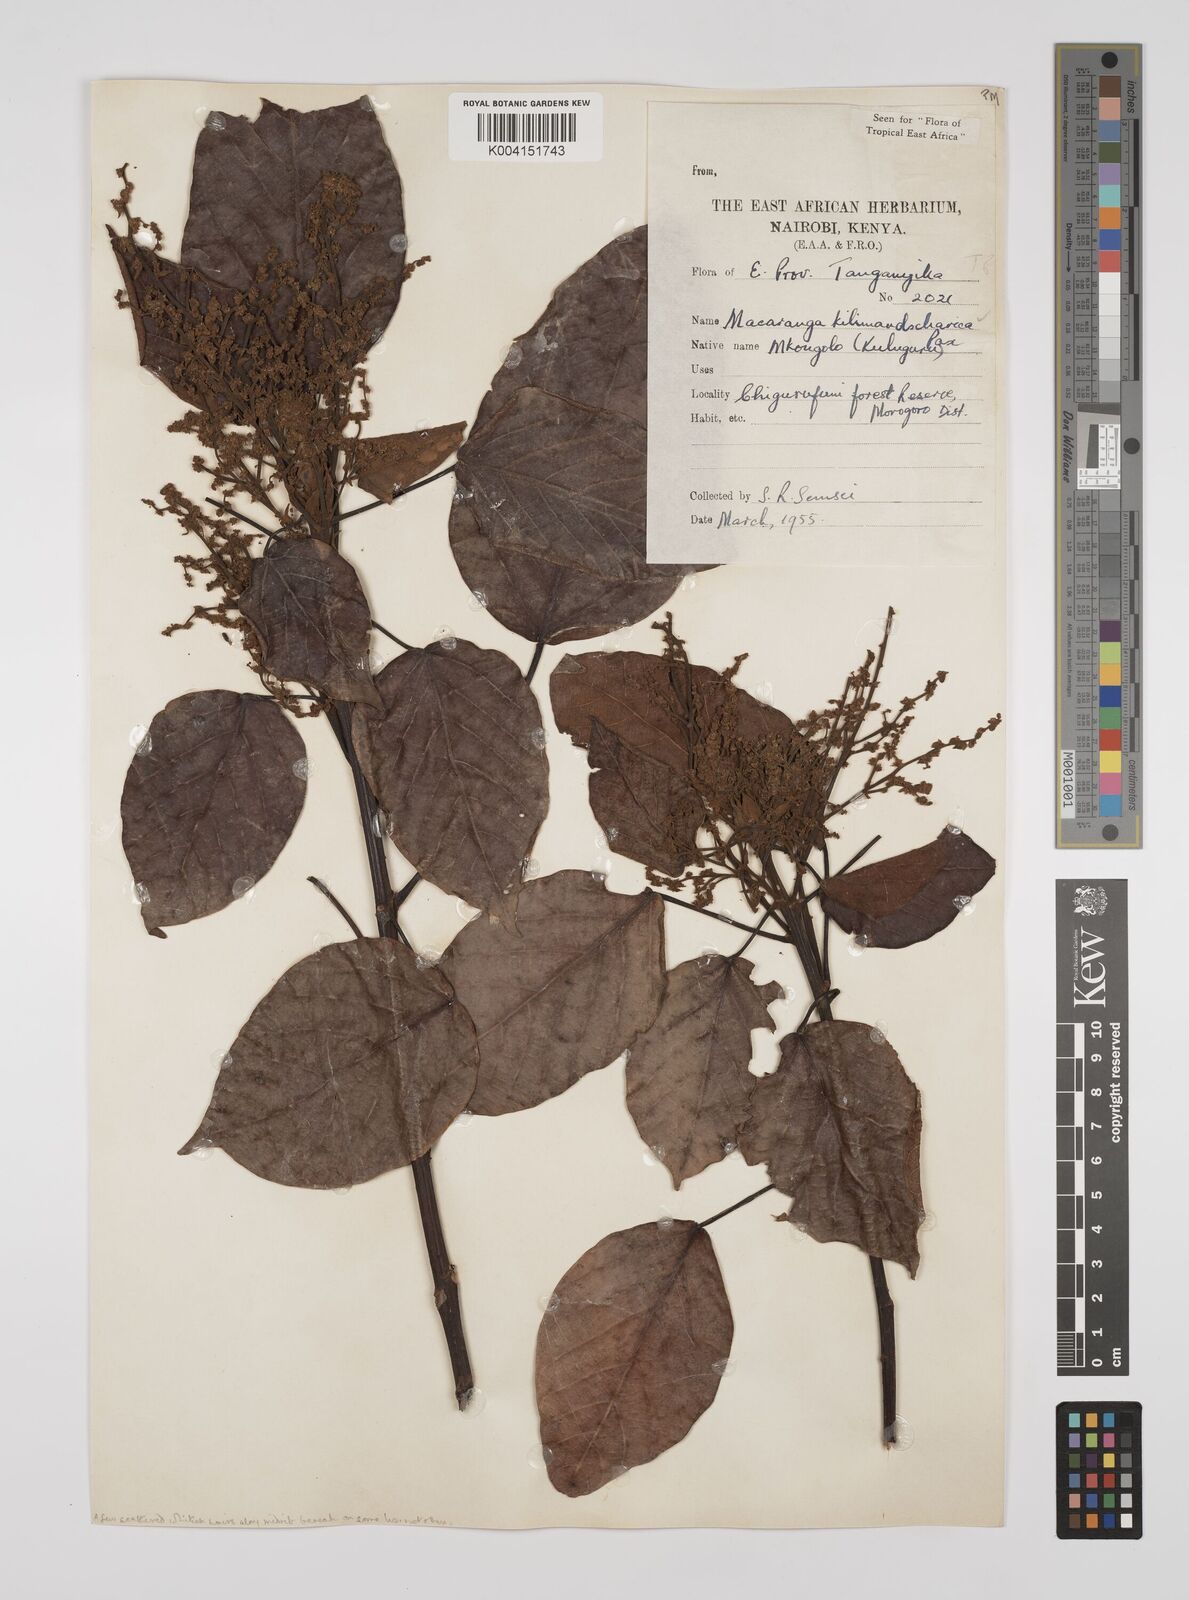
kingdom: Plantae
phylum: Tracheophyta
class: Magnoliopsida
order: Malpighiales
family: Euphorbiaceae
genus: Macaranga
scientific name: Macaranga kilimandscharica
